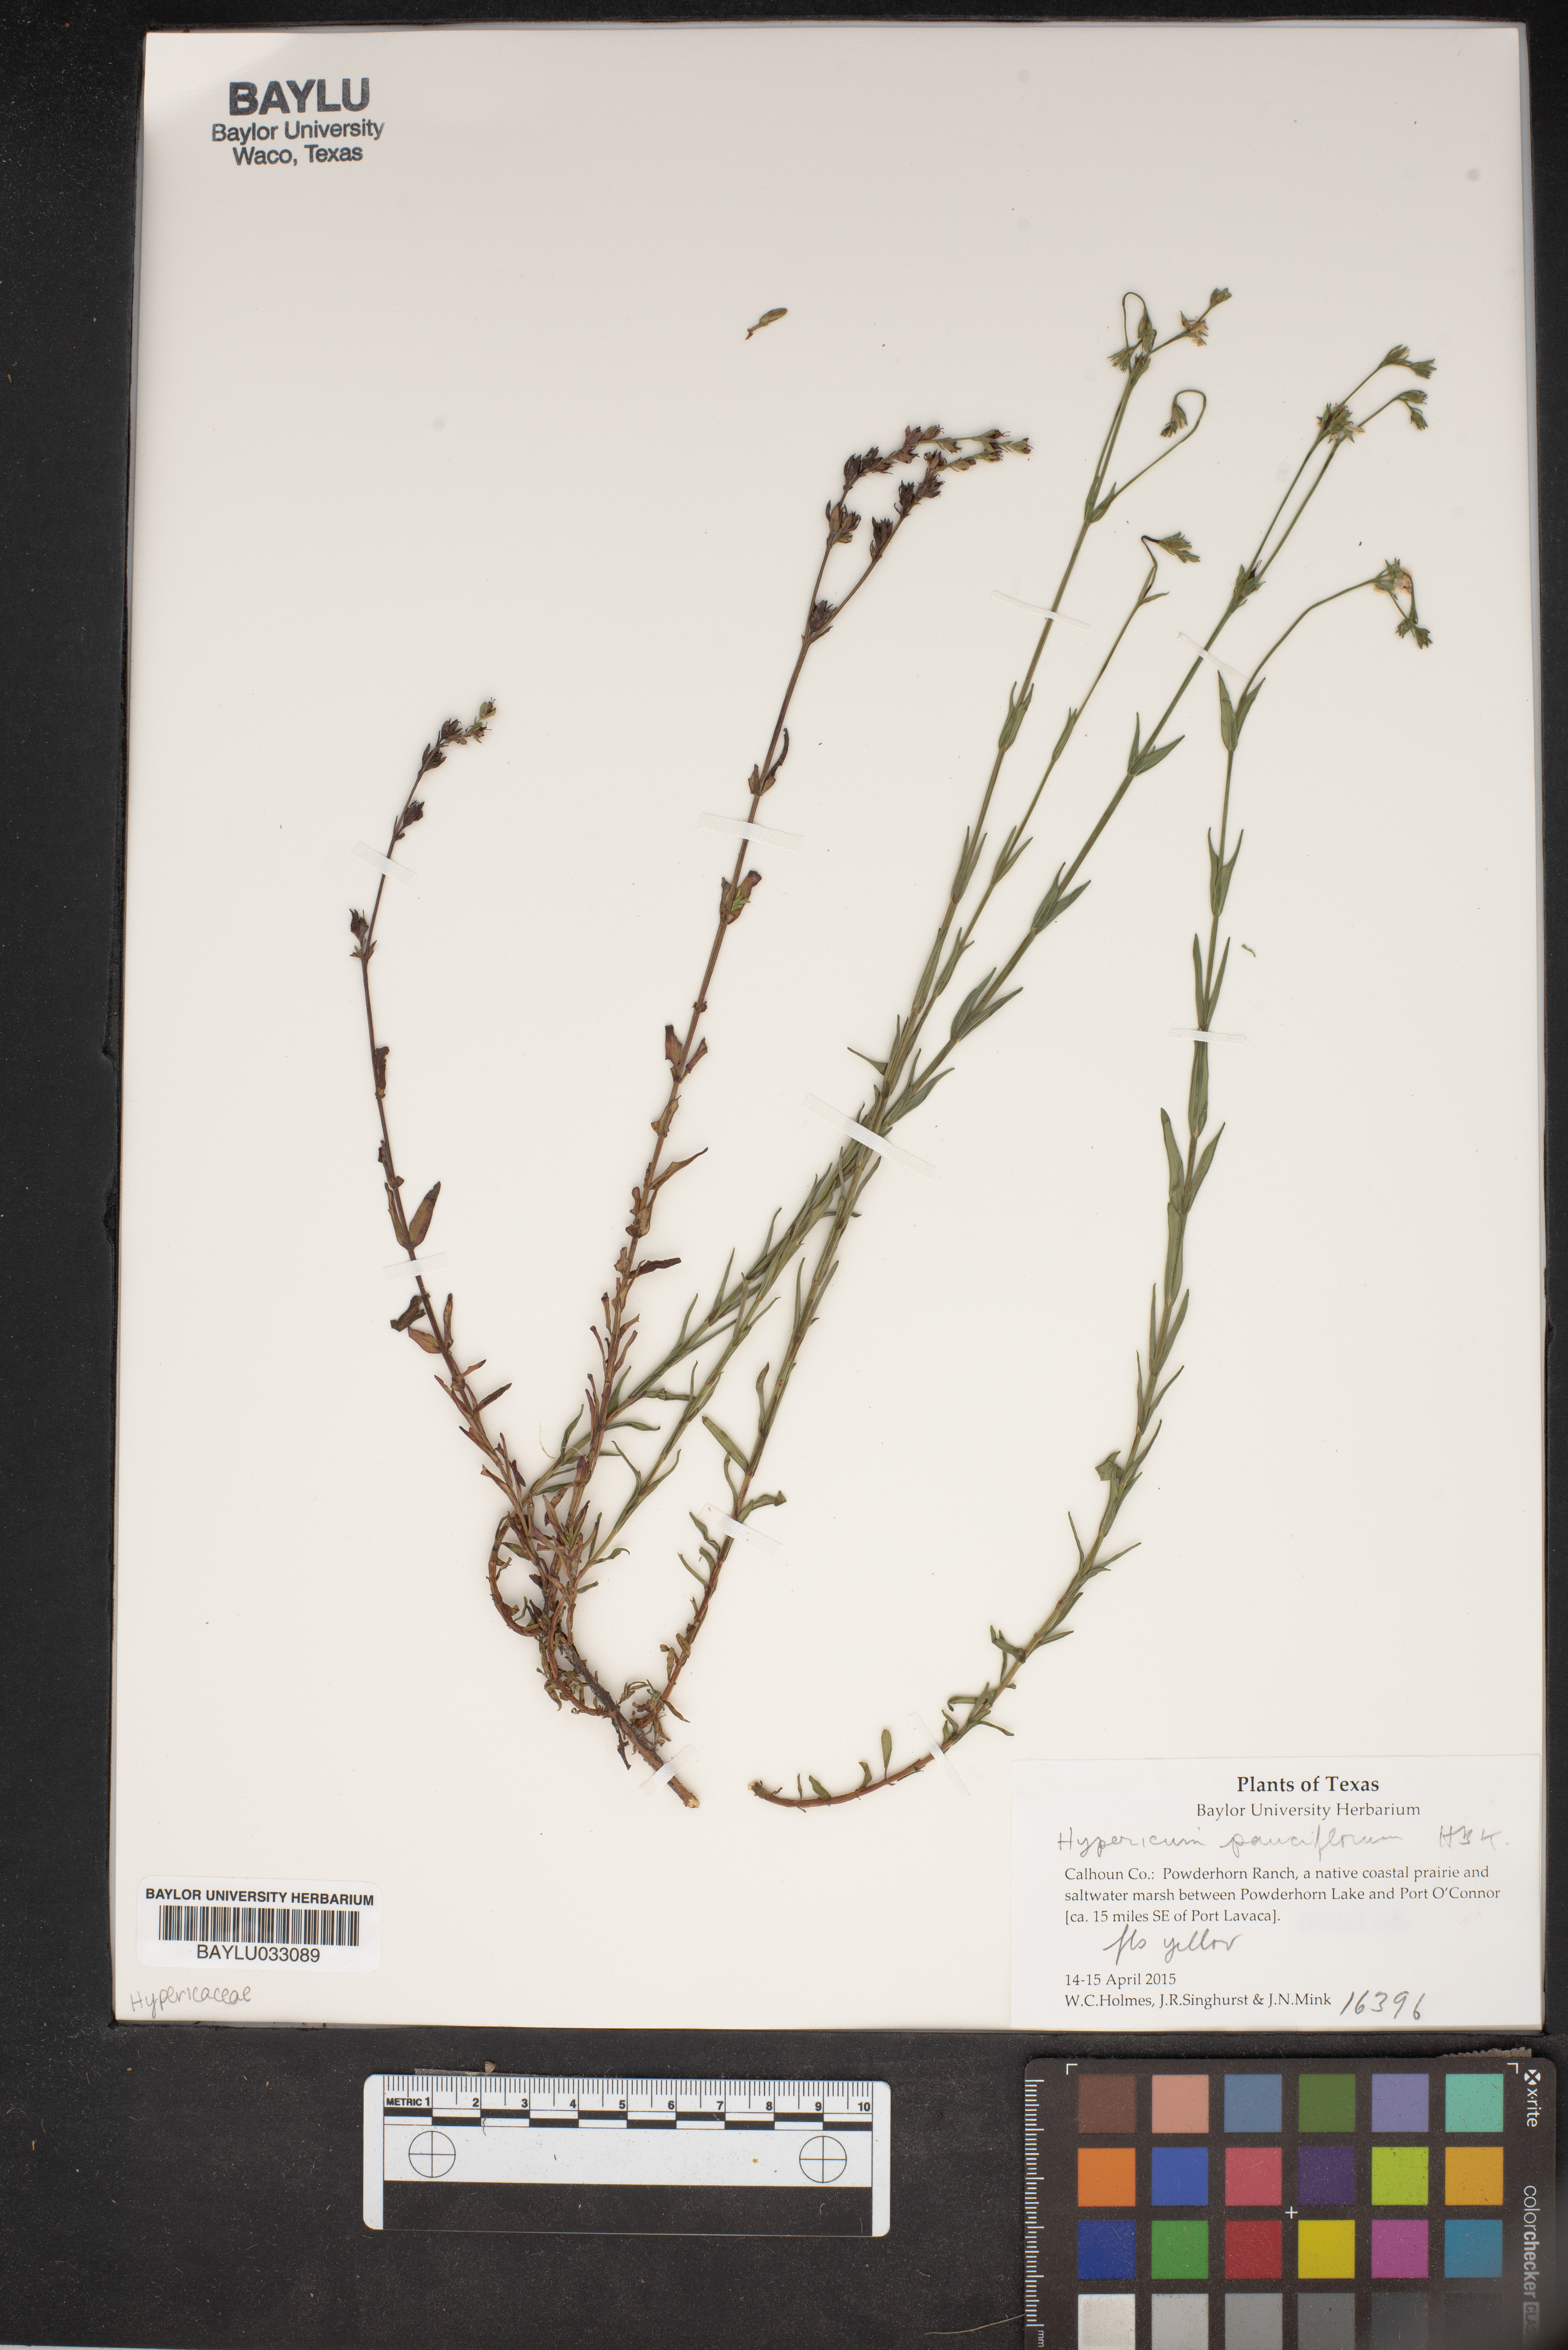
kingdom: Plantae
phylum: Tracheophyta
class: Magnoliopsida
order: Malpighiales
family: Hypericaceae
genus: Hypericum
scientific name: Hypericum pauciflorum
